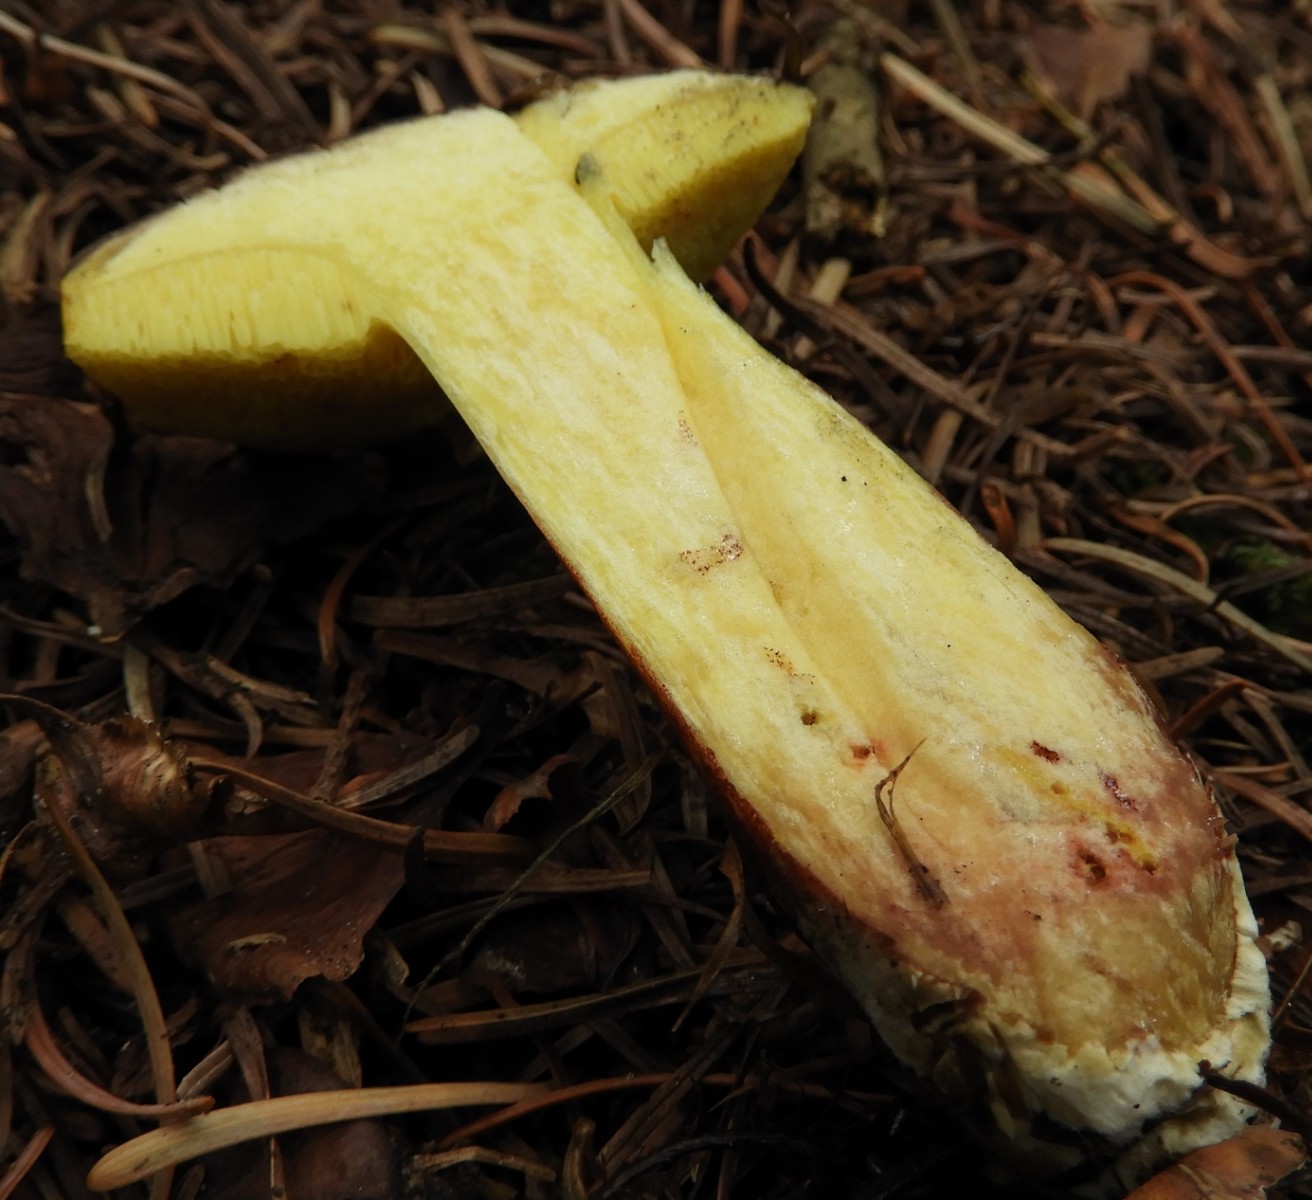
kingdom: Fungi
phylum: Basidiomycota
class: Agaricomycetes
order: Boletales
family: Boletaceae
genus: Xerocomellus
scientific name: Xerocomellus pruinatus
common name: dugget rørhat
